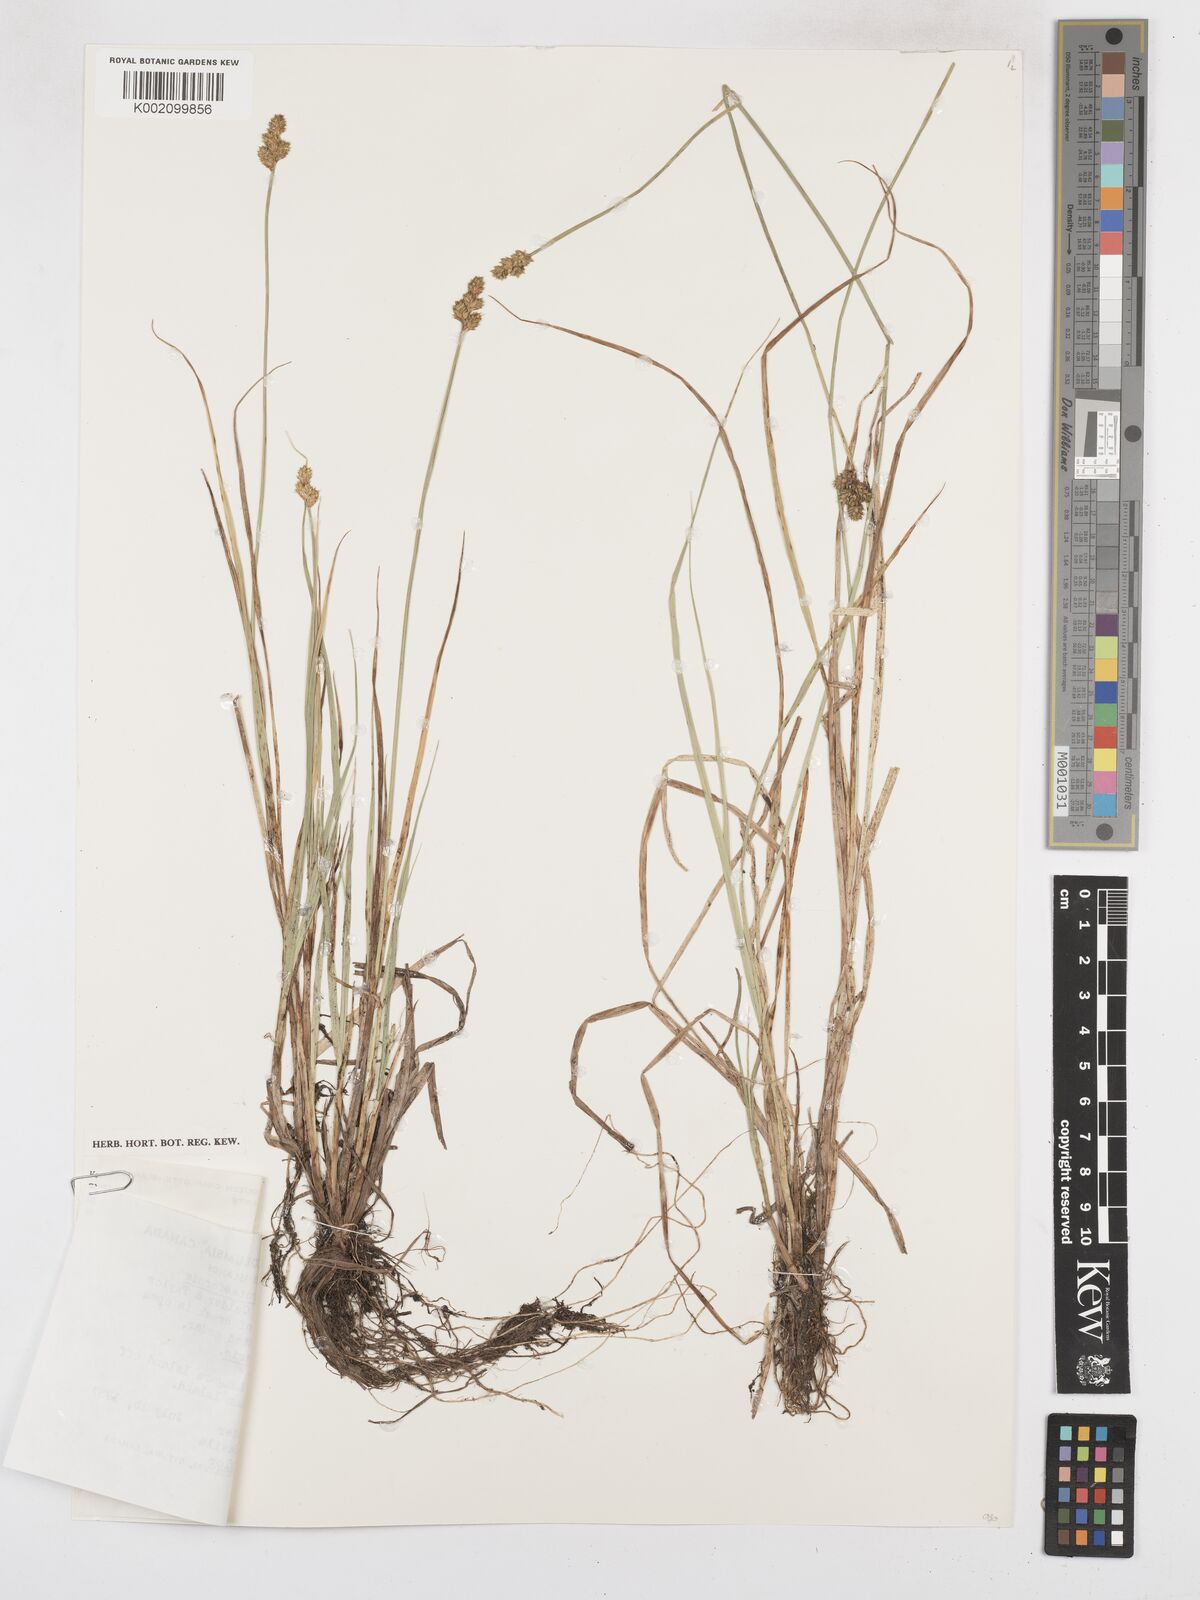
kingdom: Plantae
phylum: Tracheophyta
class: Liliopsida
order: Poales
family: Cyperaceae
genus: Carex
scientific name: Carex arctiformis
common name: Polar sedge
